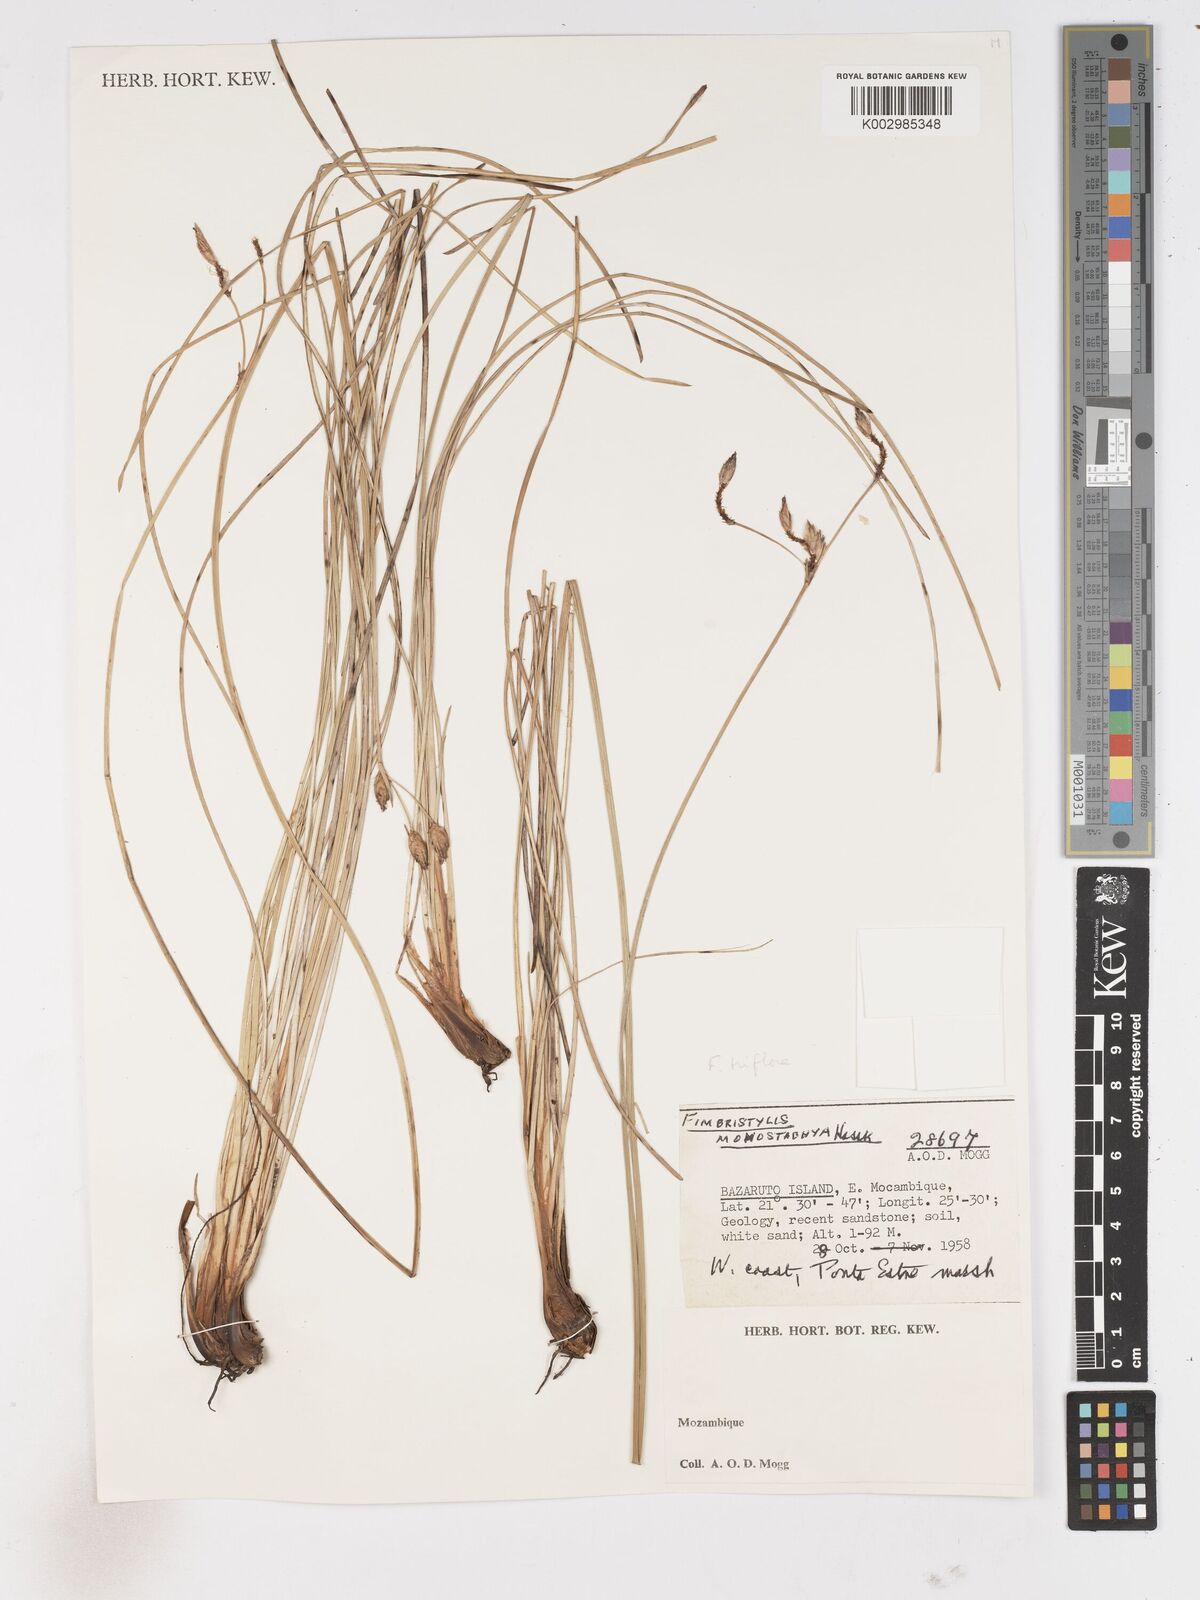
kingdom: Plantae
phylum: Tracheophyta
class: Liliopsida
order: Poales
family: Cyperaceae
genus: Abildgaardia
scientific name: Abildgaardia triflora
